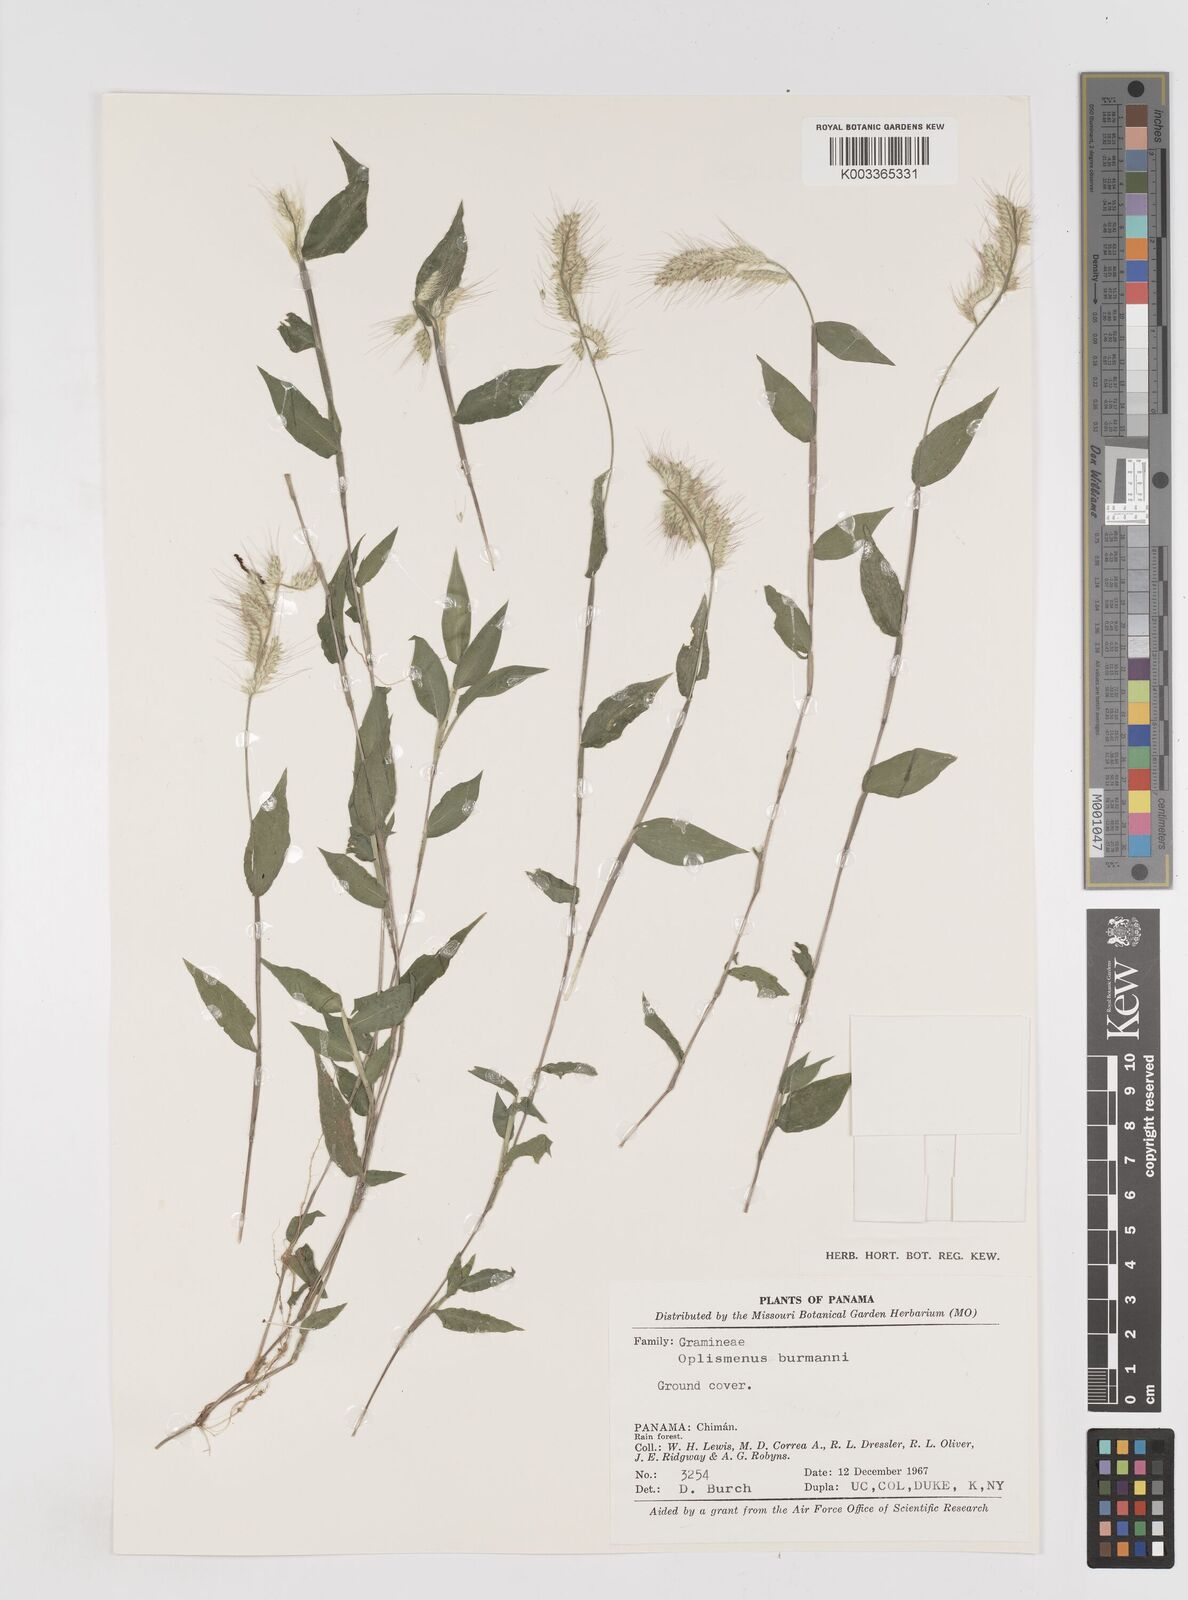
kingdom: Plantae
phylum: Tracheophyta
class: Liliopsida
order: Poales
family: Poaceae
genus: Oplismenus
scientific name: Oplismenus burmanni
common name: Burmann's basketgrass
